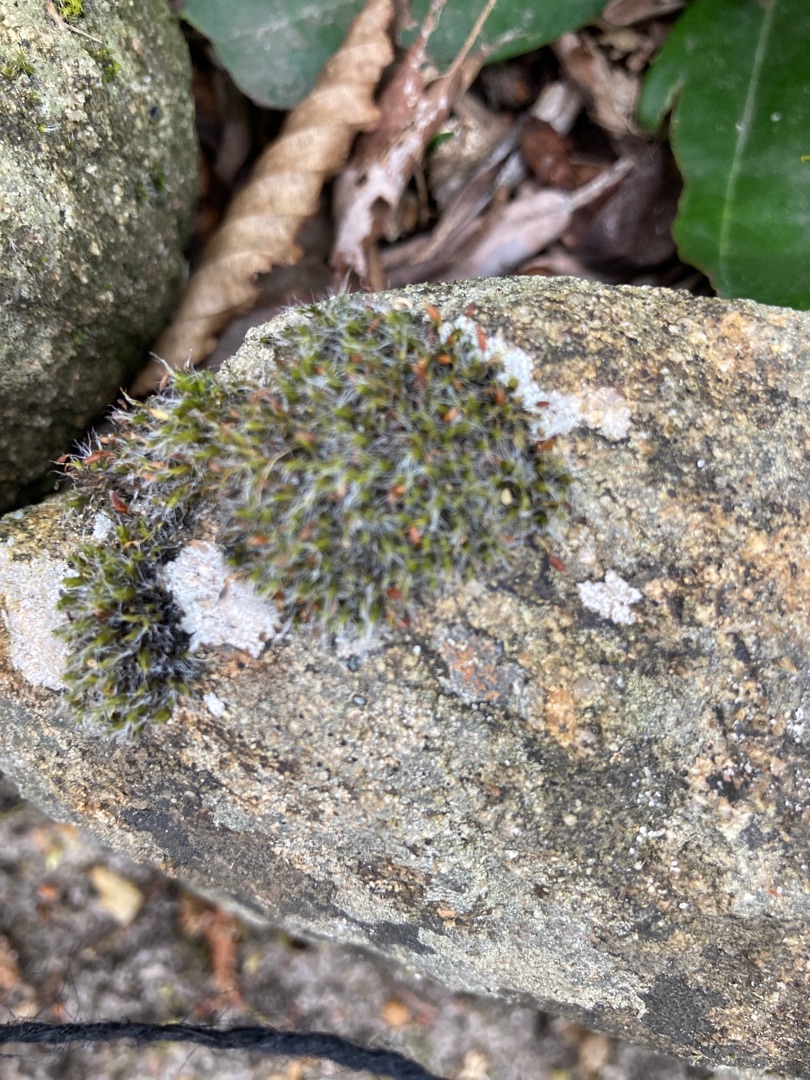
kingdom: Plantae
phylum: Bryophyta
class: Bryopsida
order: Grimmiales
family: Grimmiaceae
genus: Grimmia
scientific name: Grimmia pulvinata
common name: Pude-gråmos
